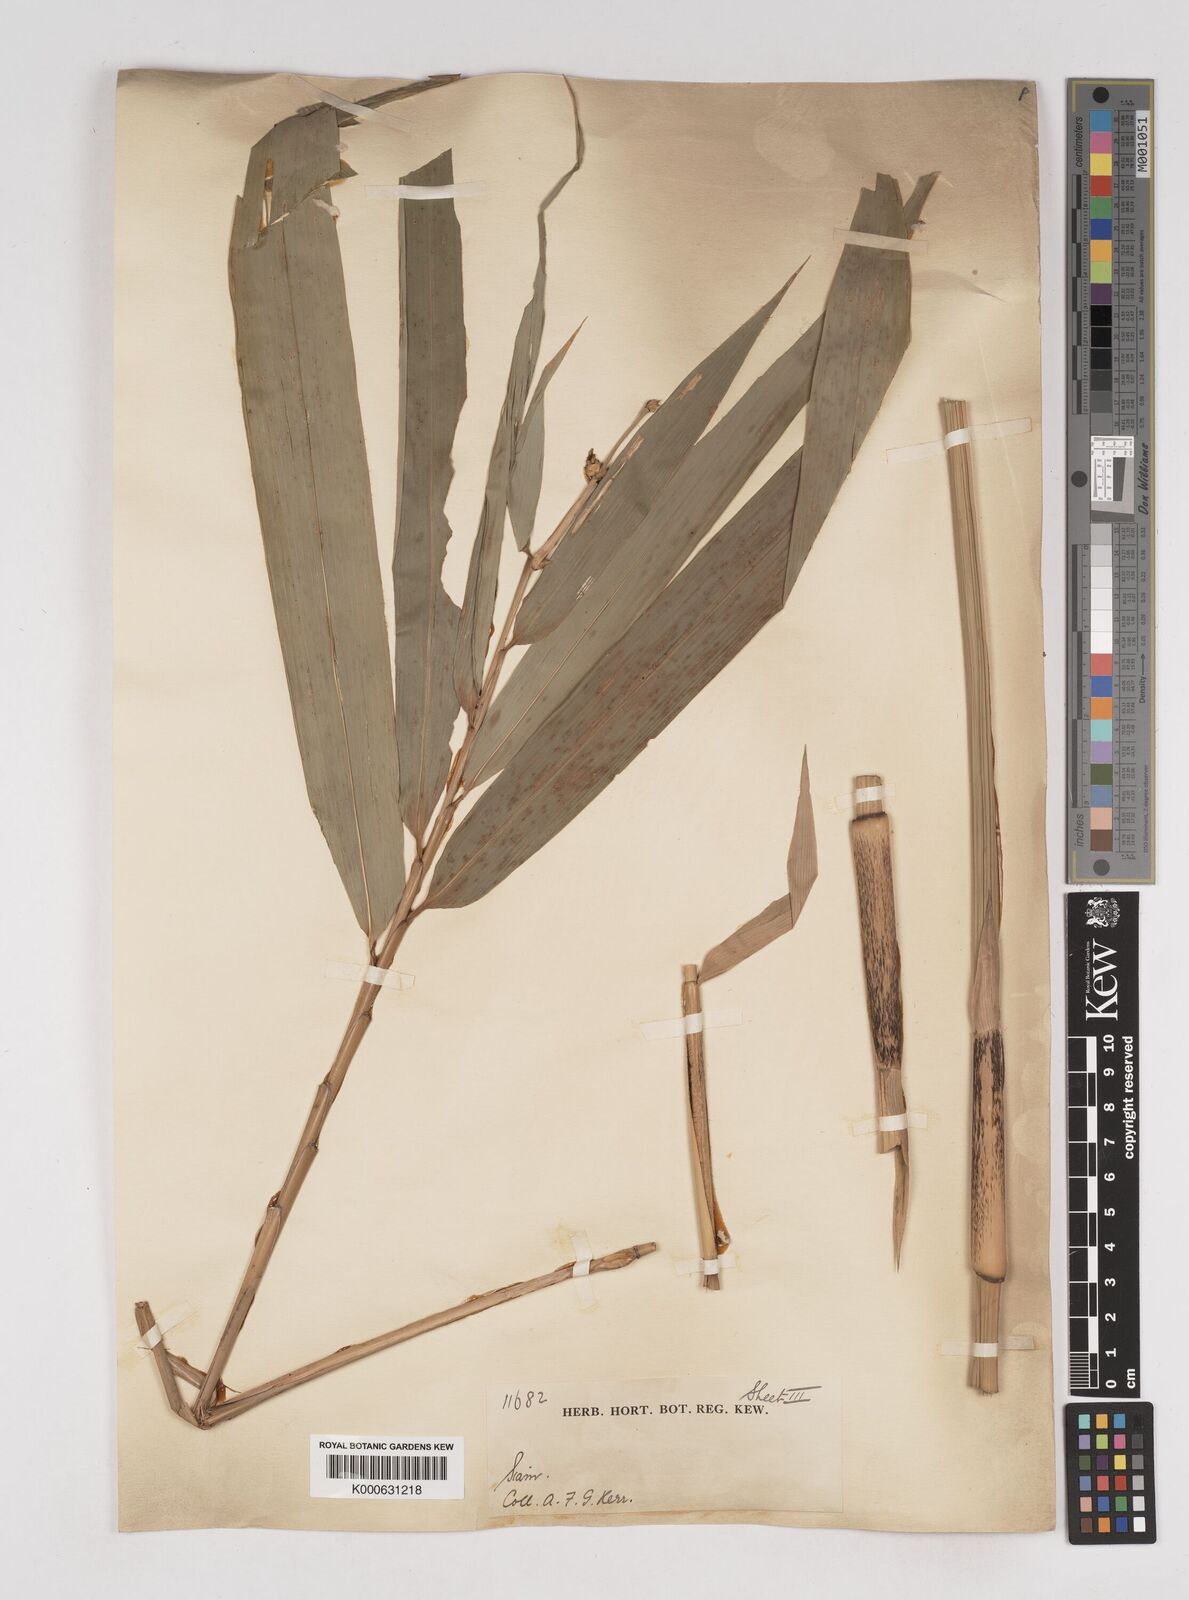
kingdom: Plantae
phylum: Tracheophyta
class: Liliopsida
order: Poales
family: Poaceae
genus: Gigantochloa
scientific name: Gigantochloa
